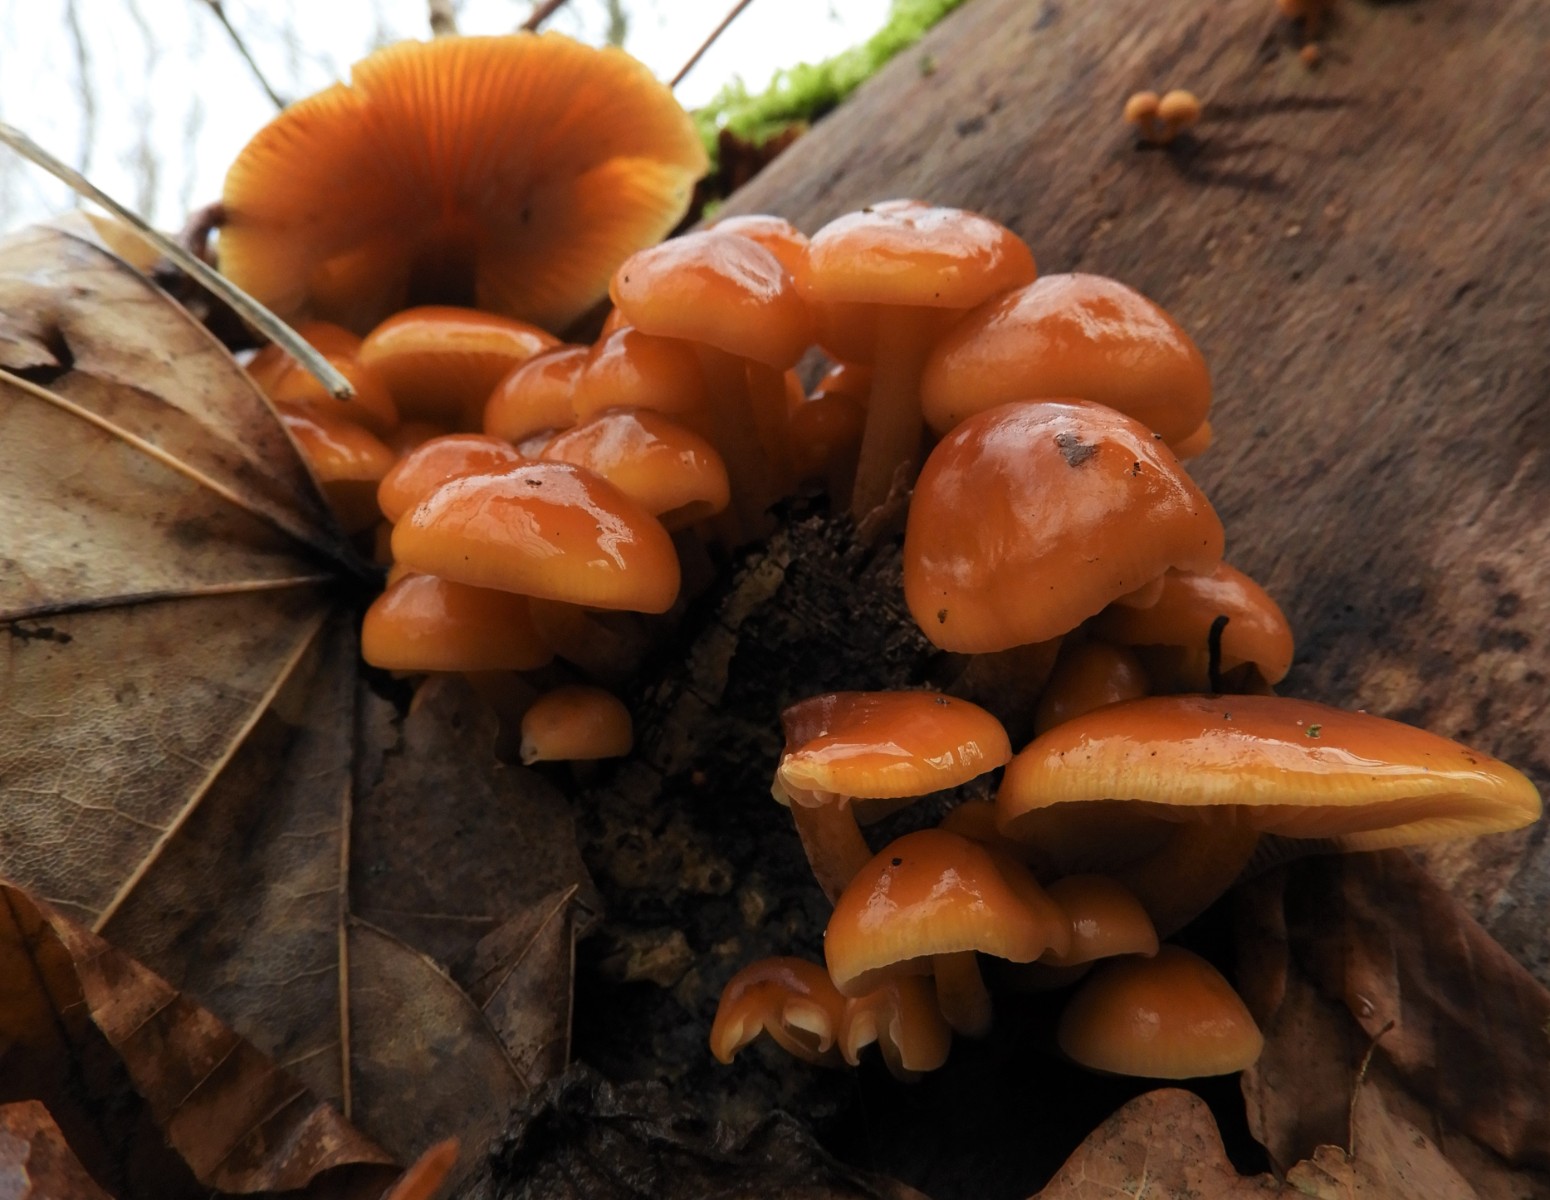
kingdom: Fungi
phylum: Basidiomycota
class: Agaricomycetes
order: Agaricales
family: Physalacriaceae
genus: Flammulina
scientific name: Flammulina
